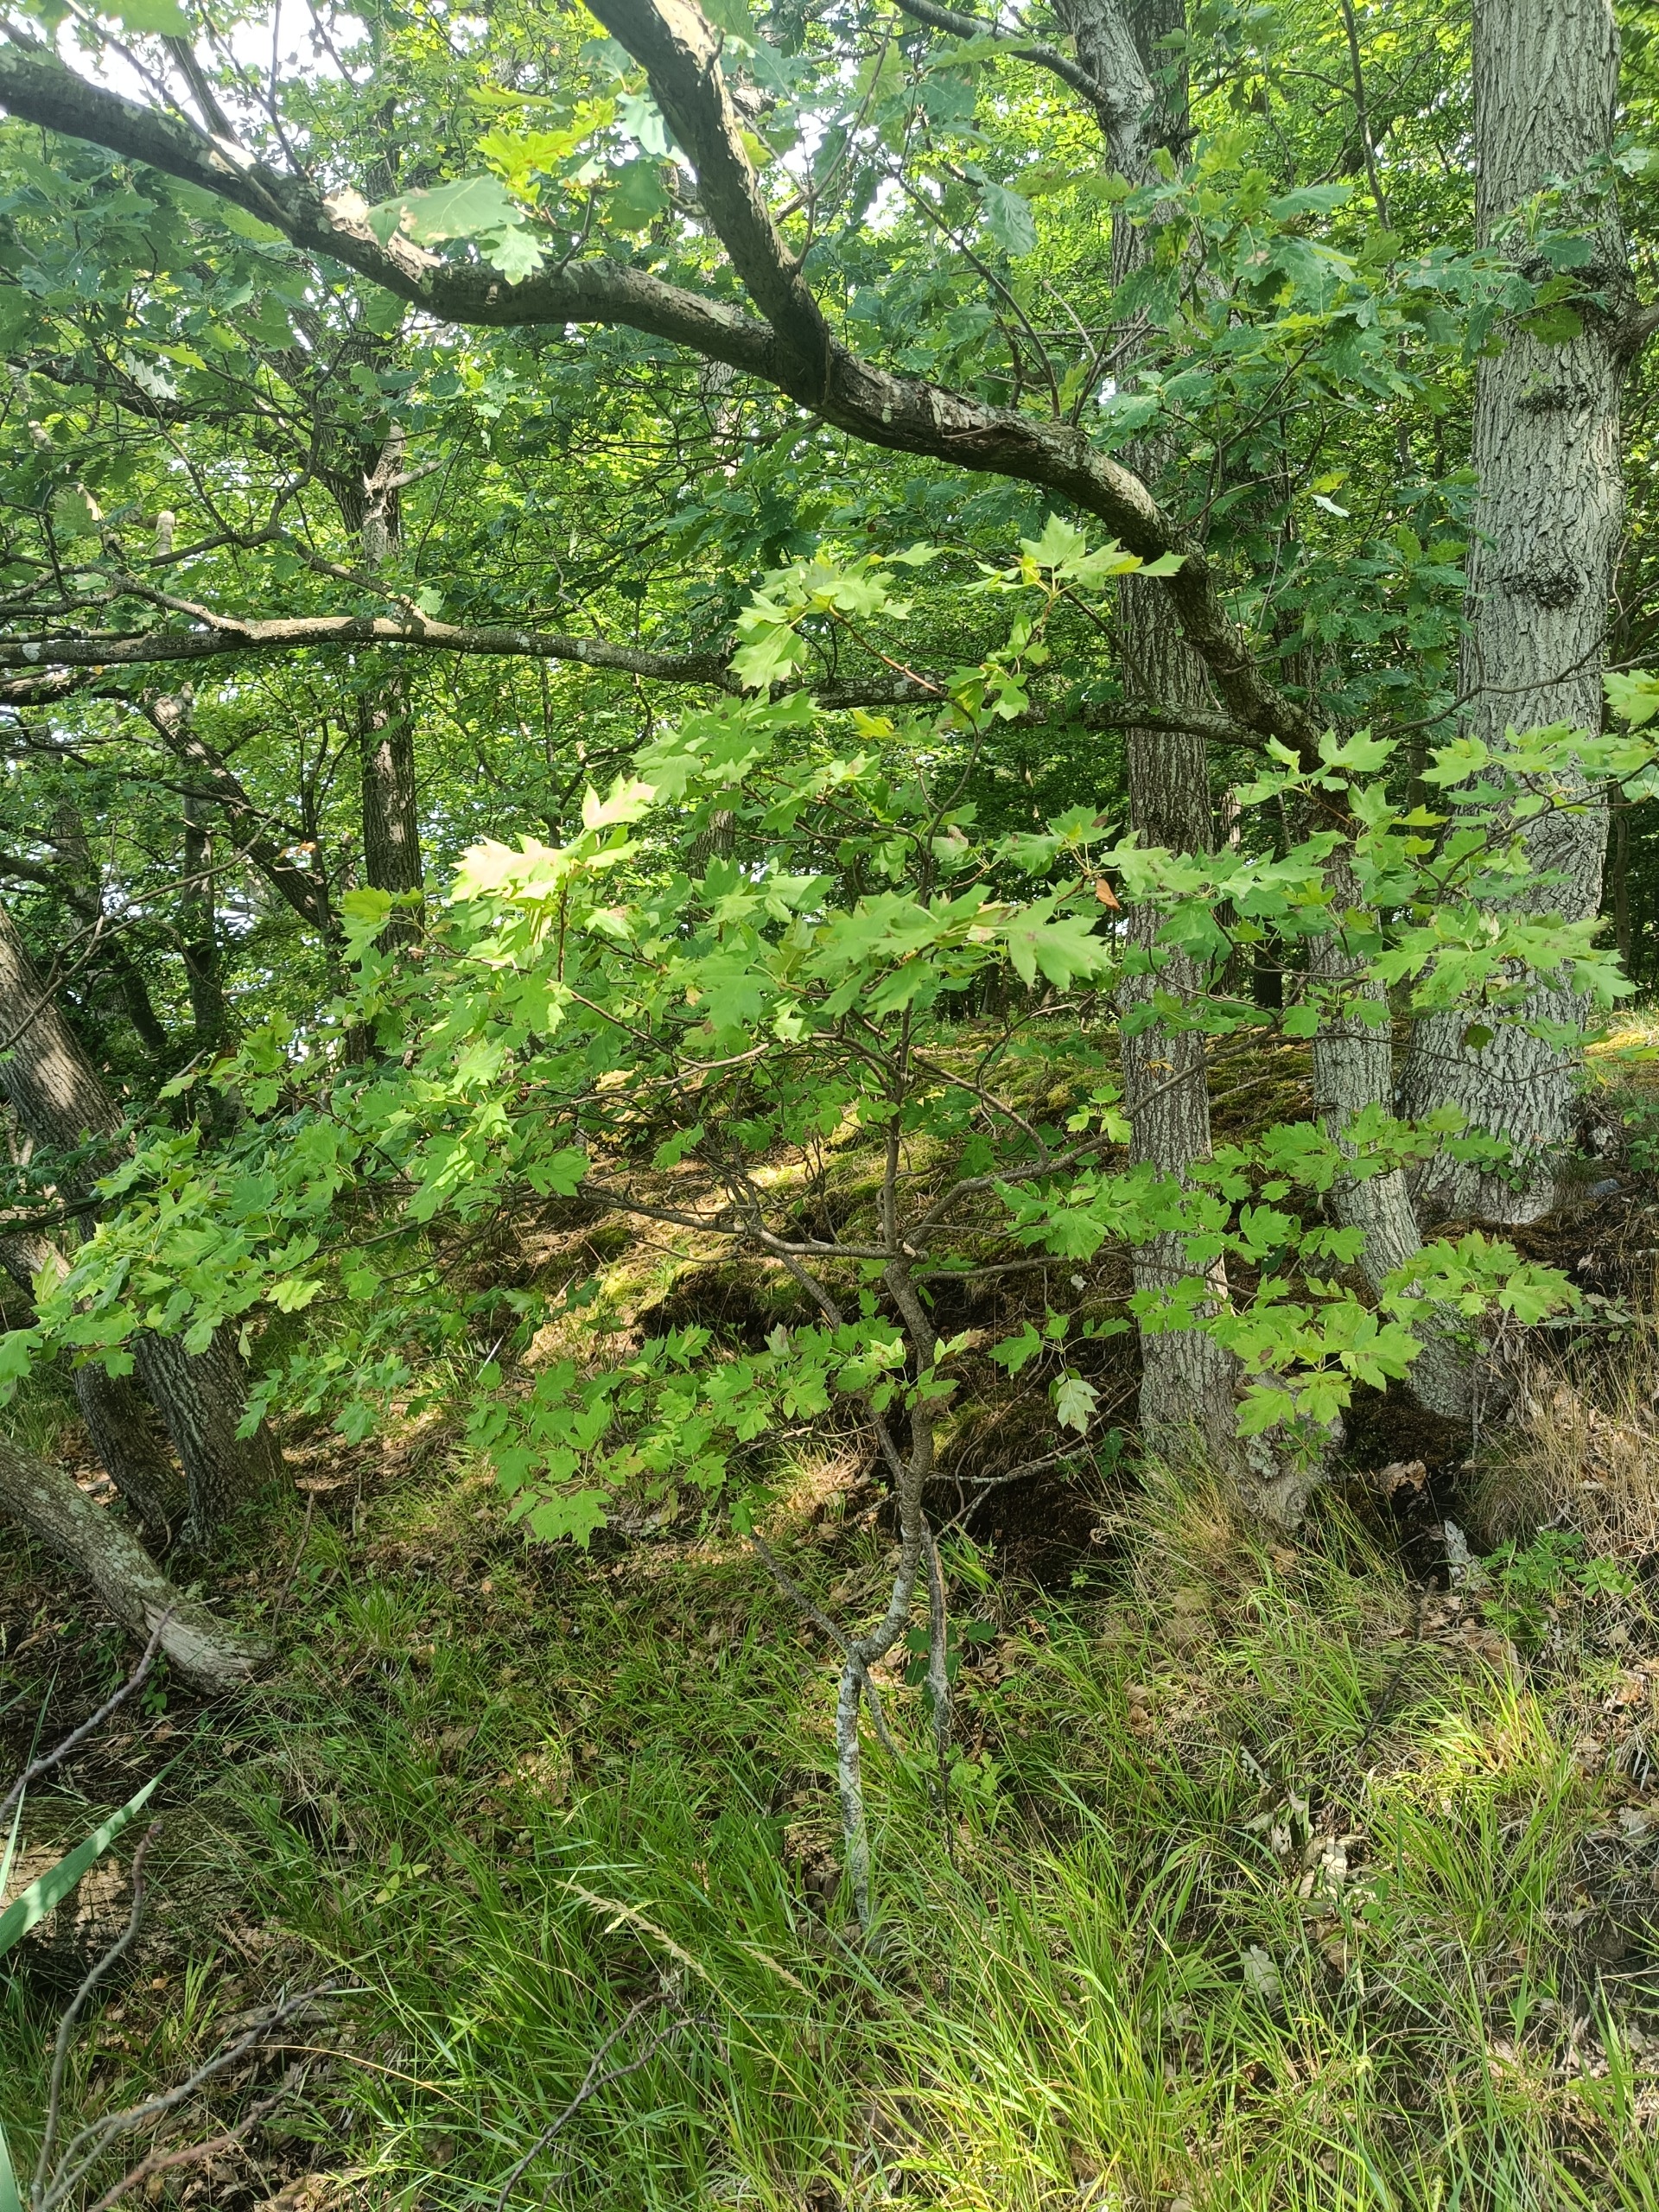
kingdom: Plantae
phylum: Tracheophyta
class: Magnoliopsida
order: Rosales
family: Rosaceae
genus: Torminalis
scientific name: Torminalis glaberrima
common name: Tarmvrid-røn
